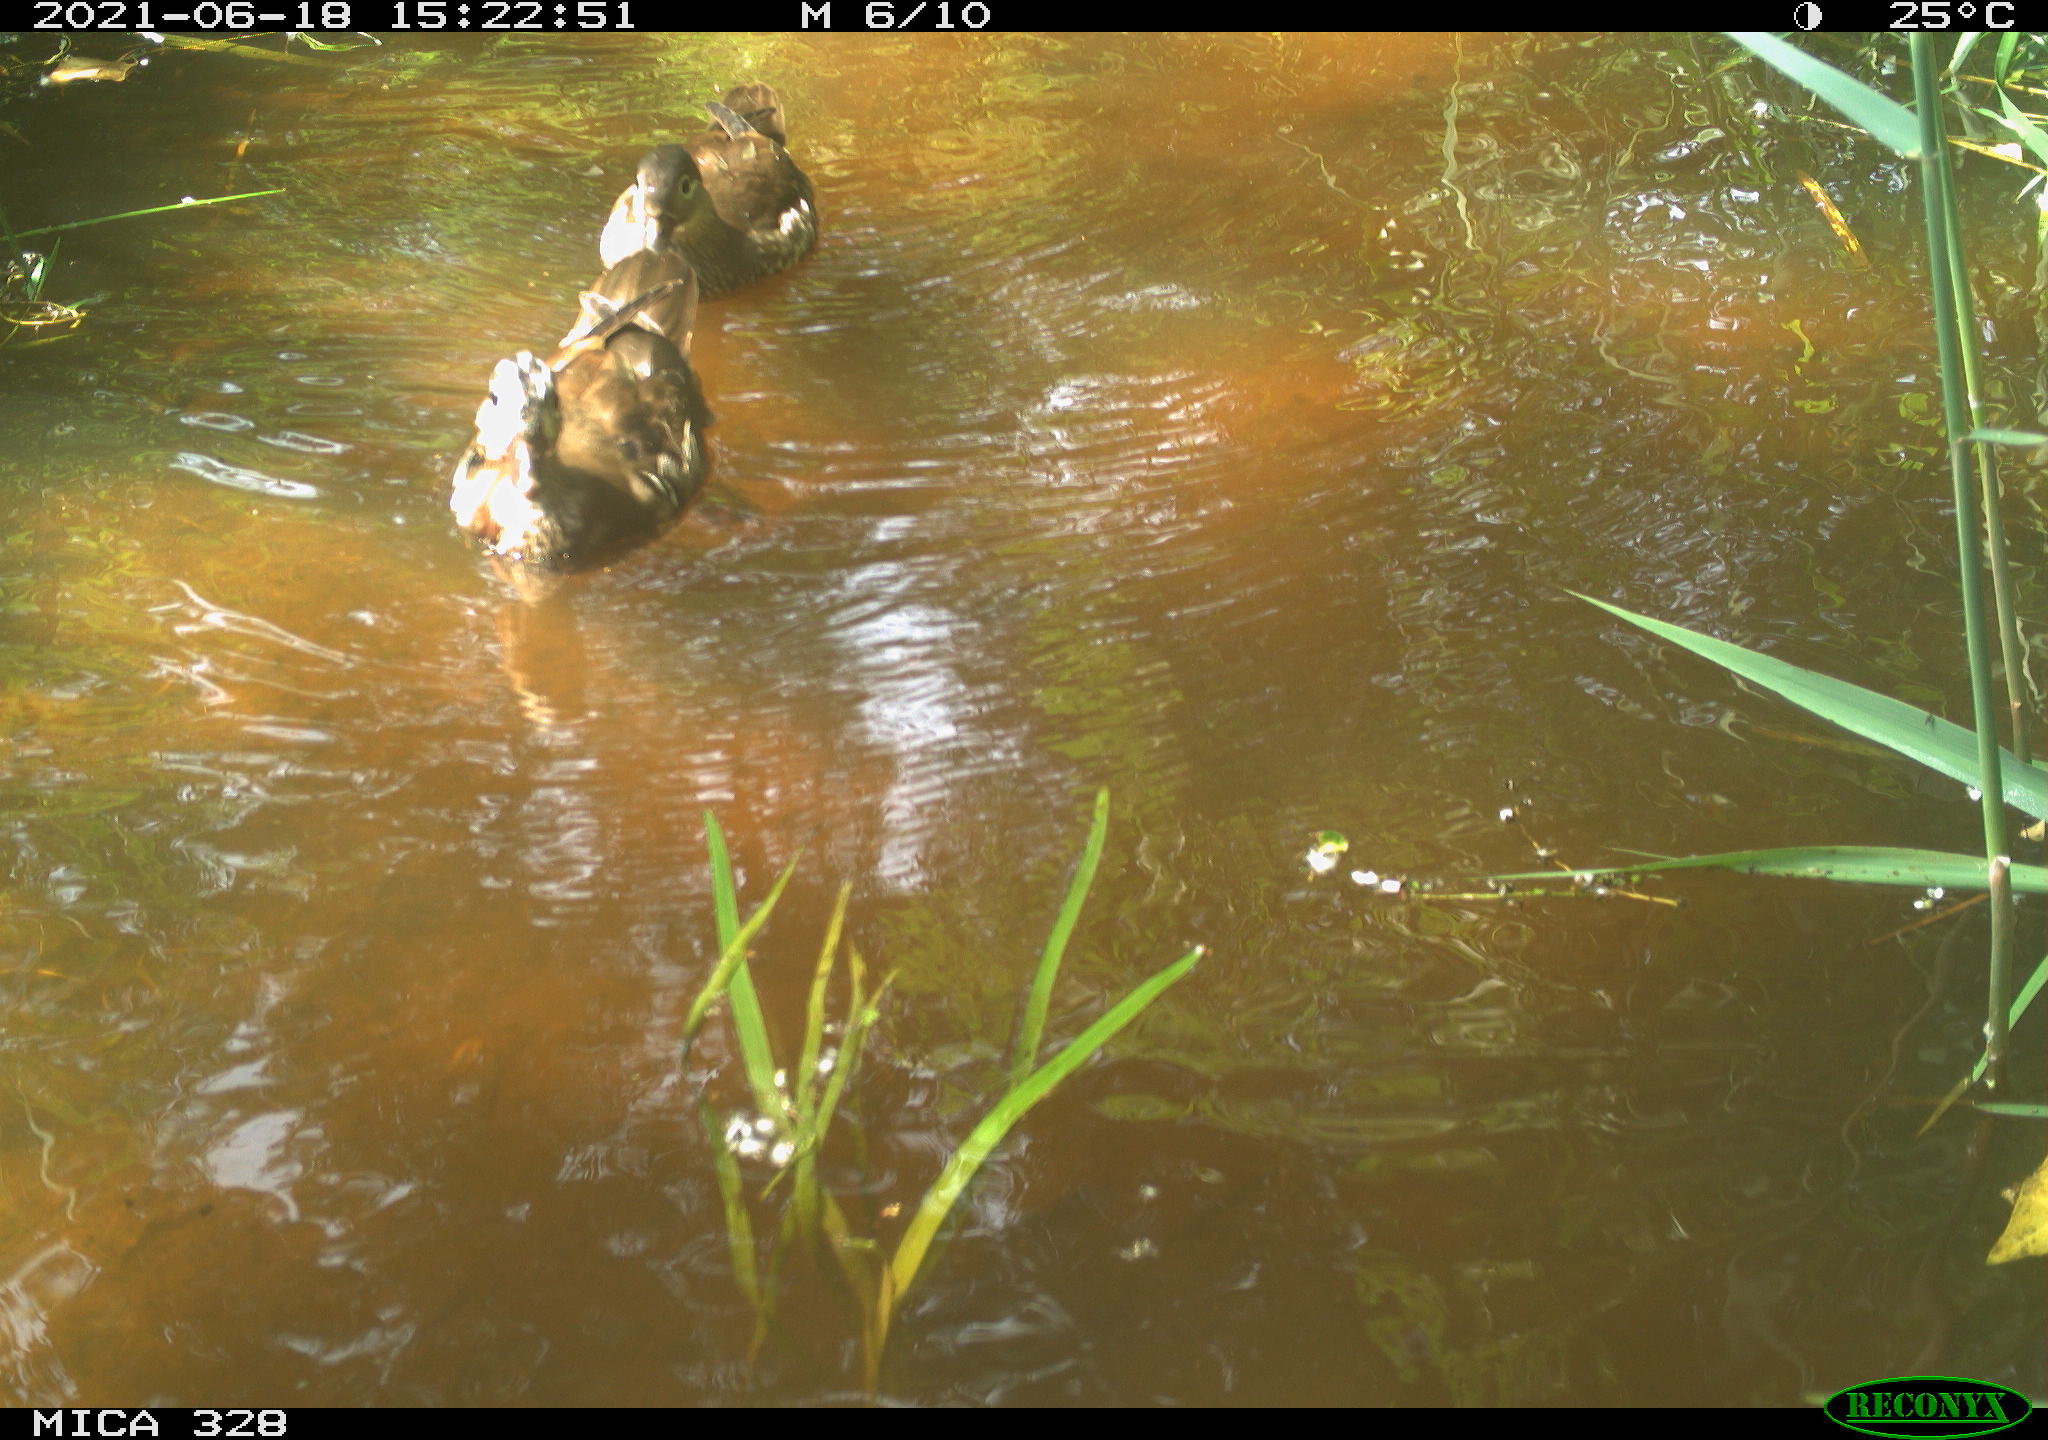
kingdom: Animalia
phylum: Chordata
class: Aves
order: Anseriformes
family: Anatidae
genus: Aix
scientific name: Aix galericulata
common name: Mandarin duck
